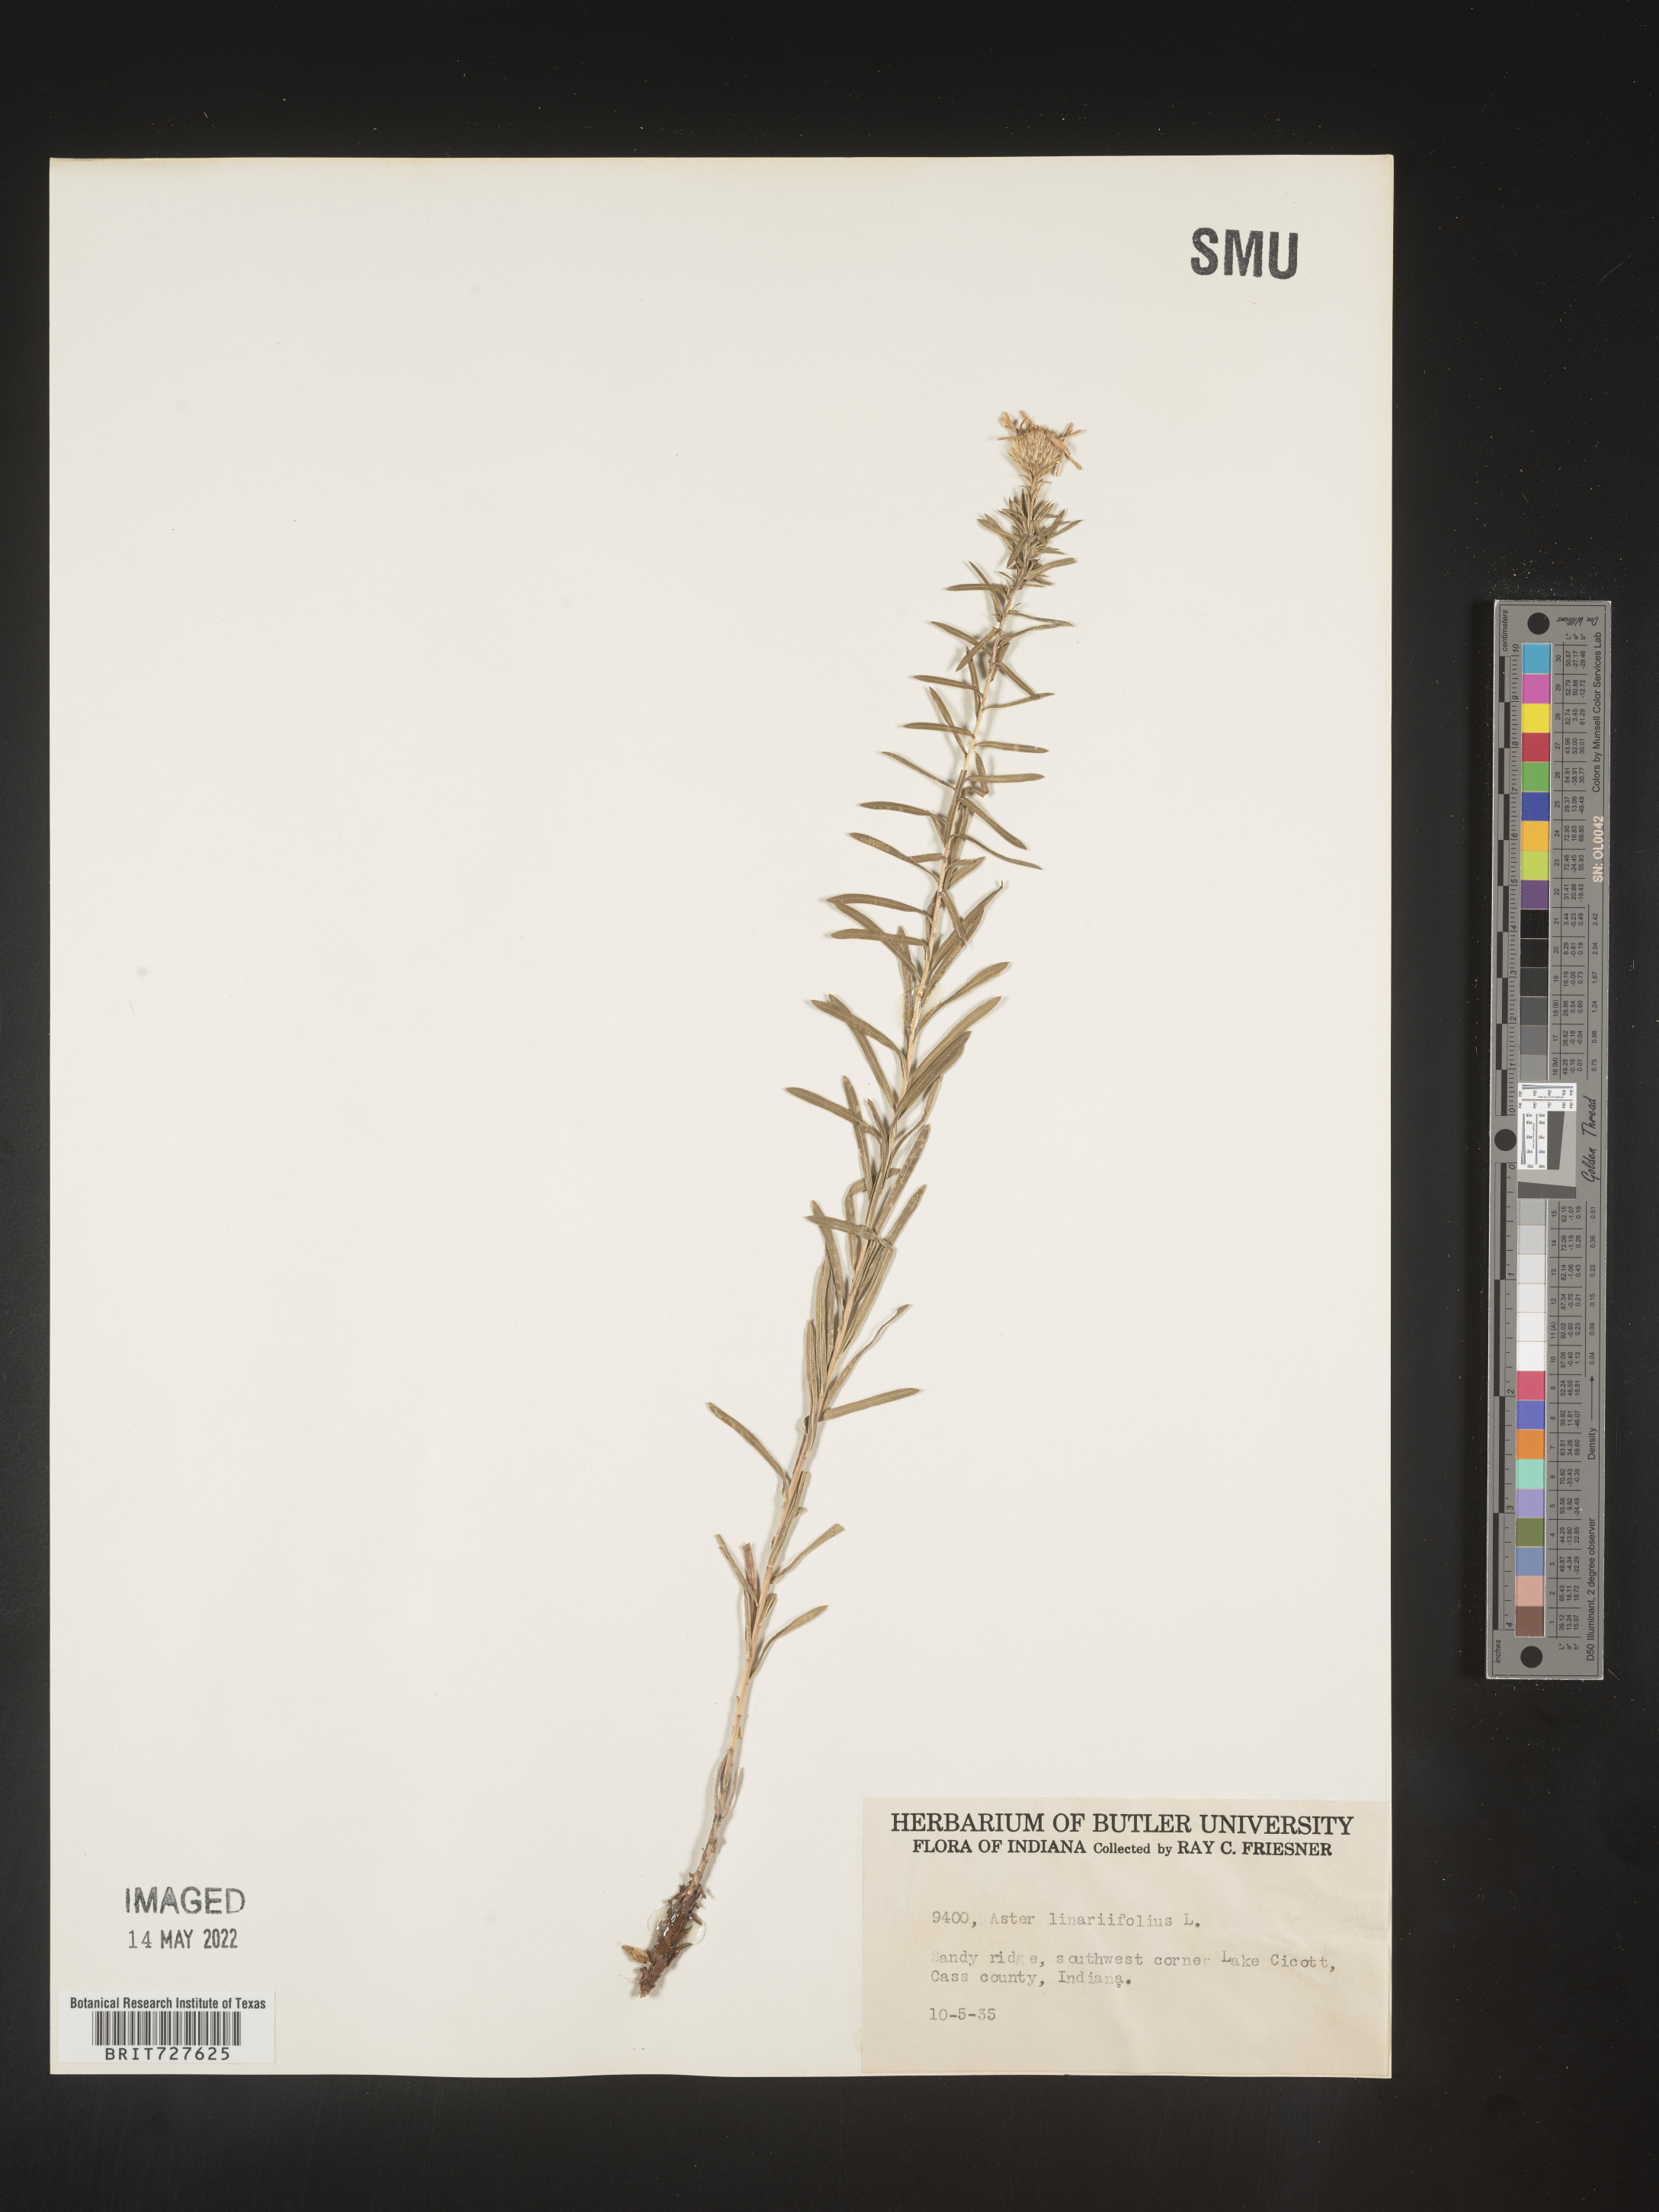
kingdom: Plantae
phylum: Tracheophyta
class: Magnoliopsida
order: Asterales
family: Asteraceae
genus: Ionactis
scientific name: Ionactis linariifolia
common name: Flax-leaf aster
